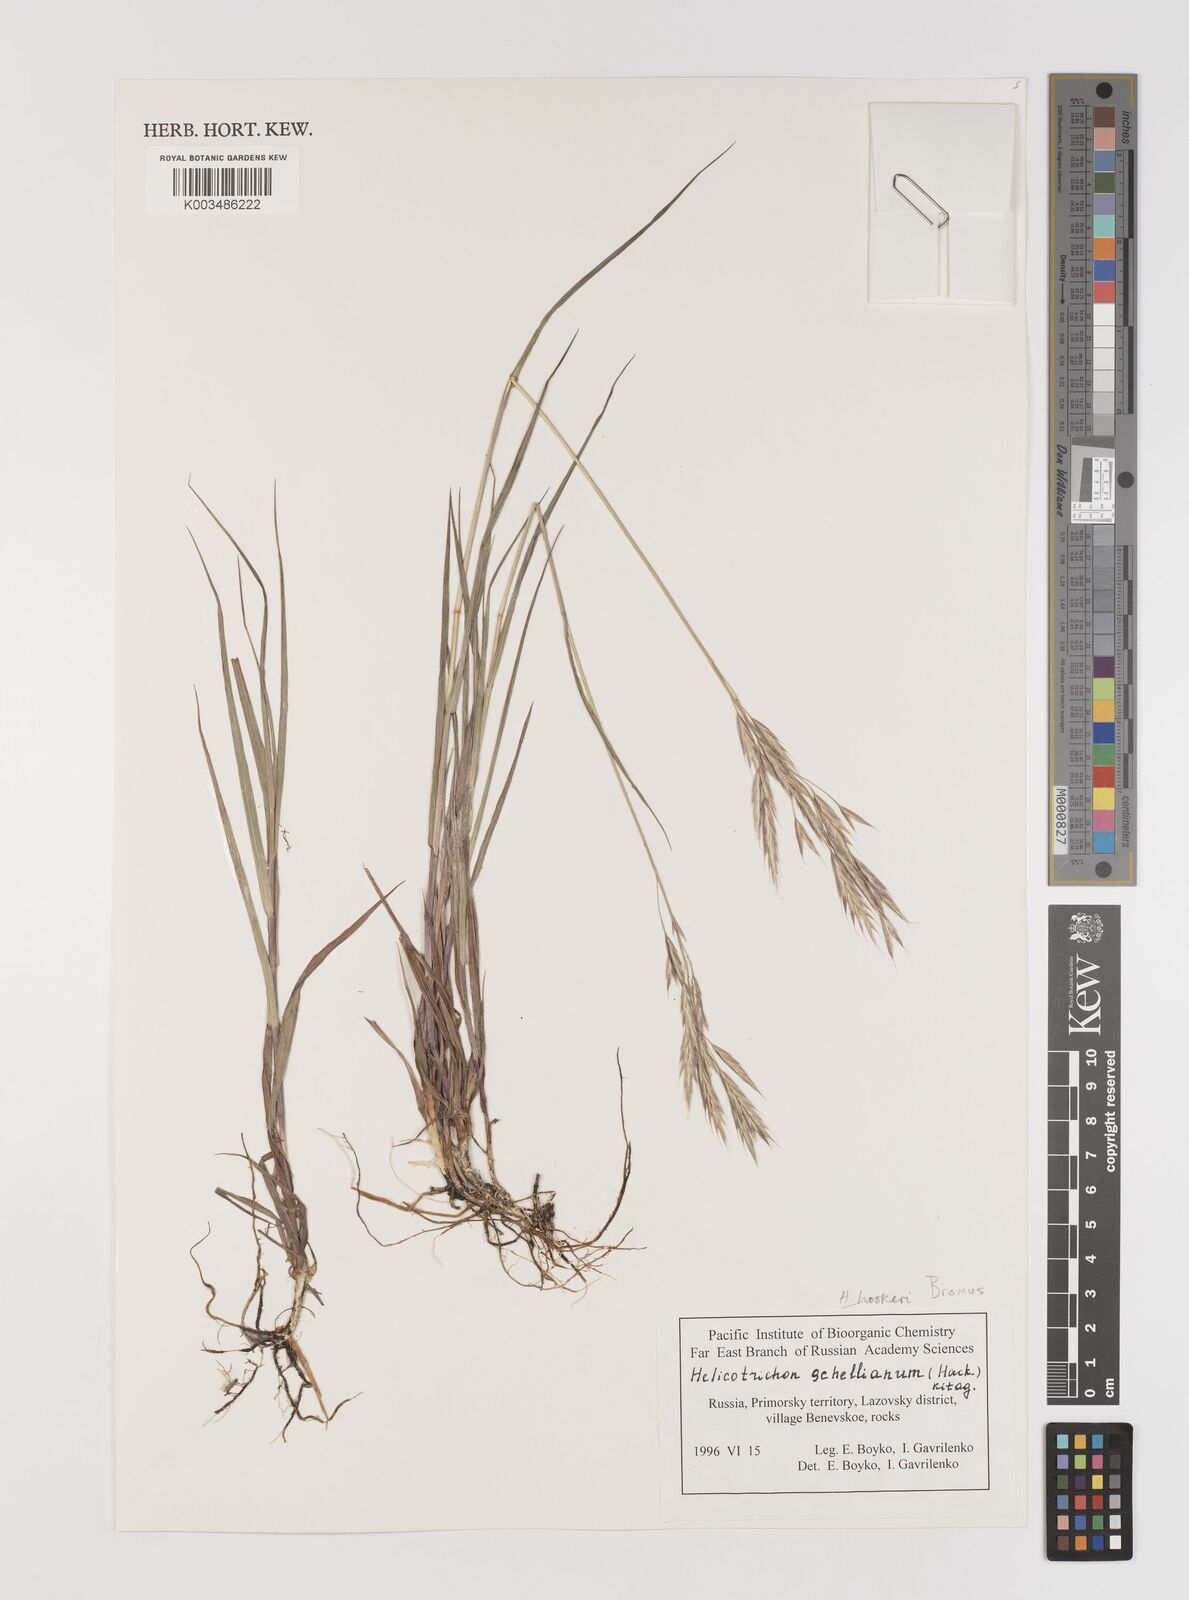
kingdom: Plantae
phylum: Tracheophyta
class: Liliopsida
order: Poales
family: Poaceae
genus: Bromus
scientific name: Bromus
